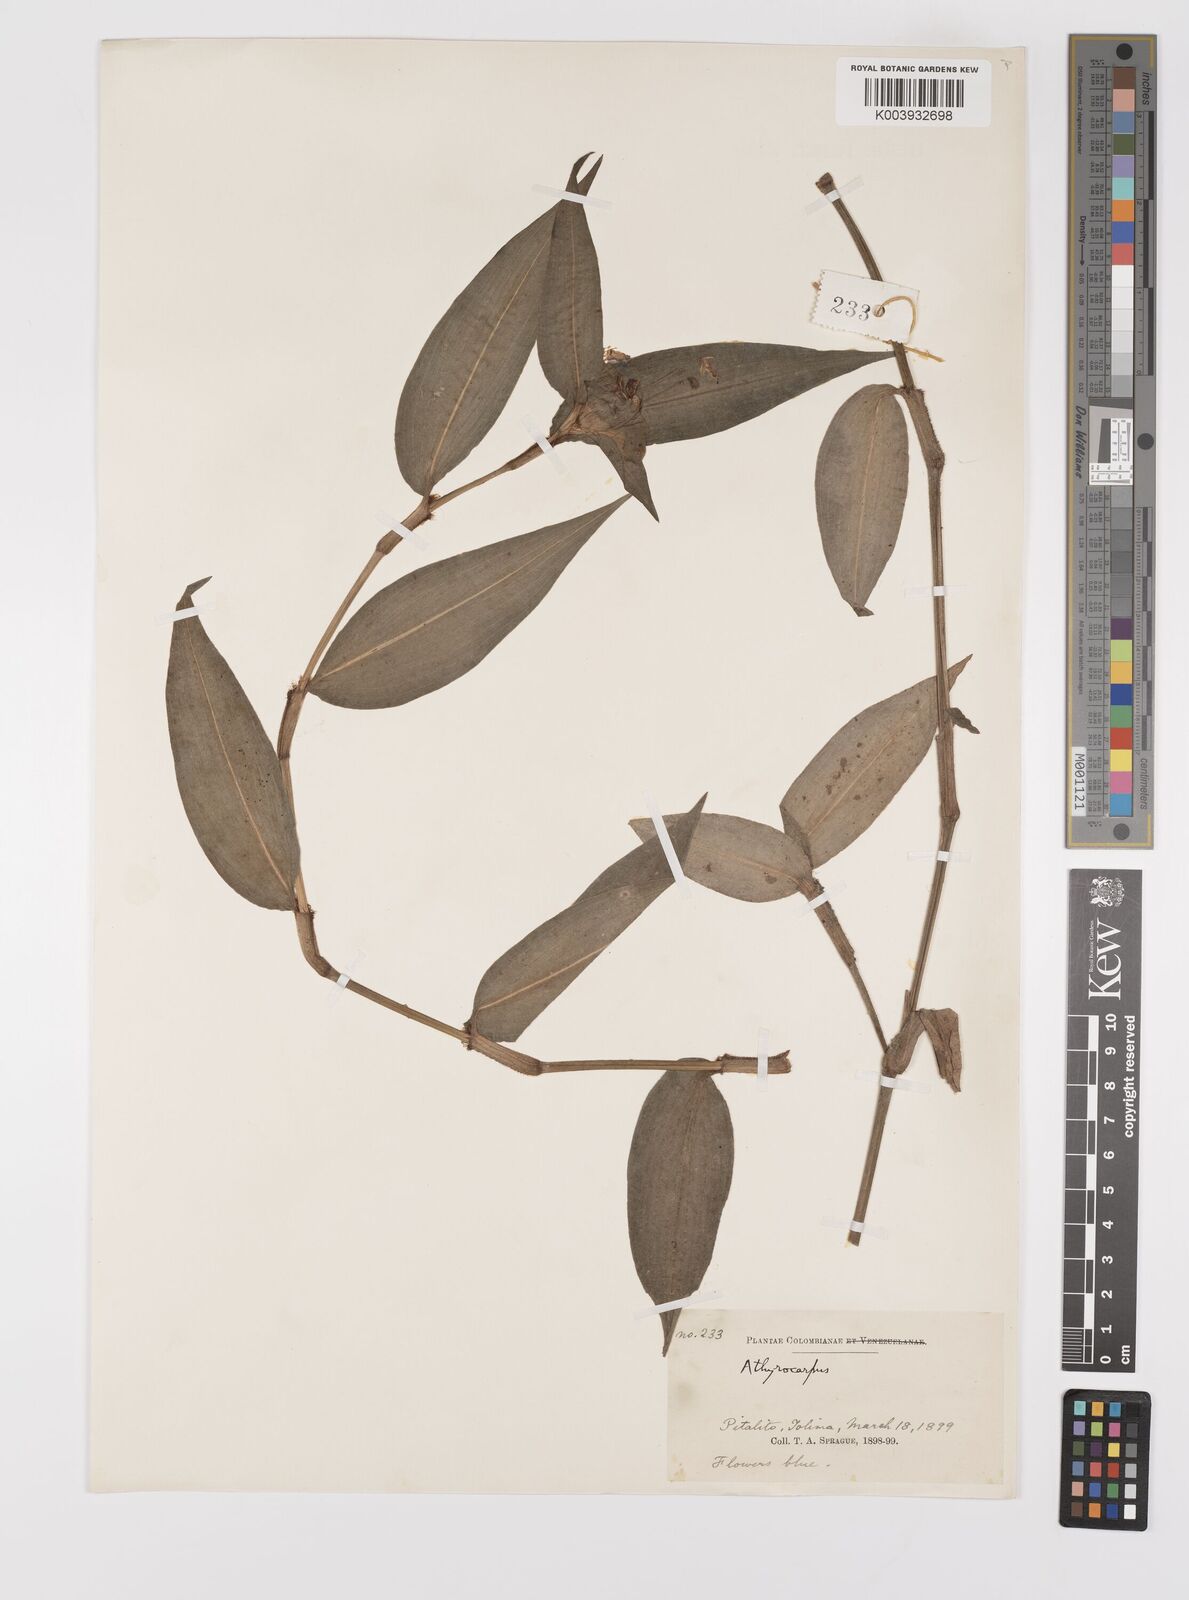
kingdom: Plantae
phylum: Tracheophyta
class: Liliopsida
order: Commelinales
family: Commelinaceae
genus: Commelina
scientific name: Commelina obliqua
